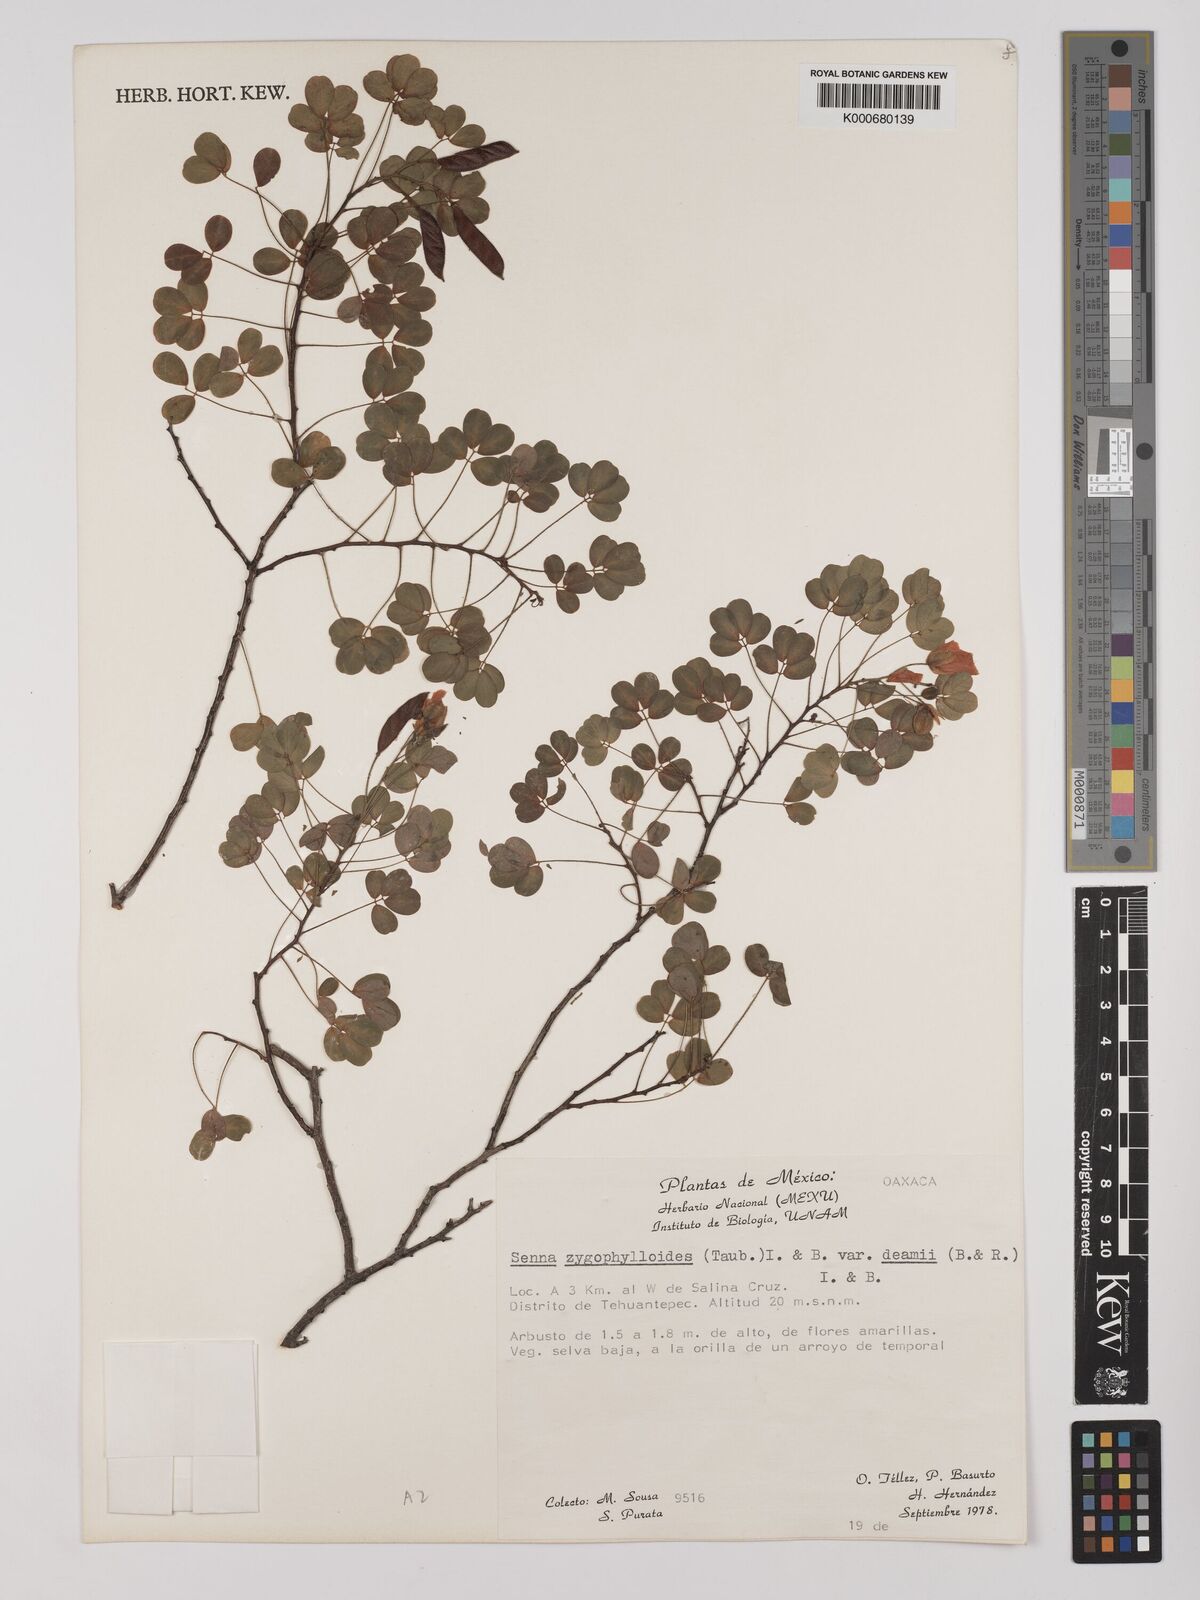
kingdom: Plantae
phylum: Tracheophyta
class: Magnoliopsida
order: Fabales
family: Fabaceae
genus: Chamaecrista
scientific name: Chamaecrista zygophylloides
